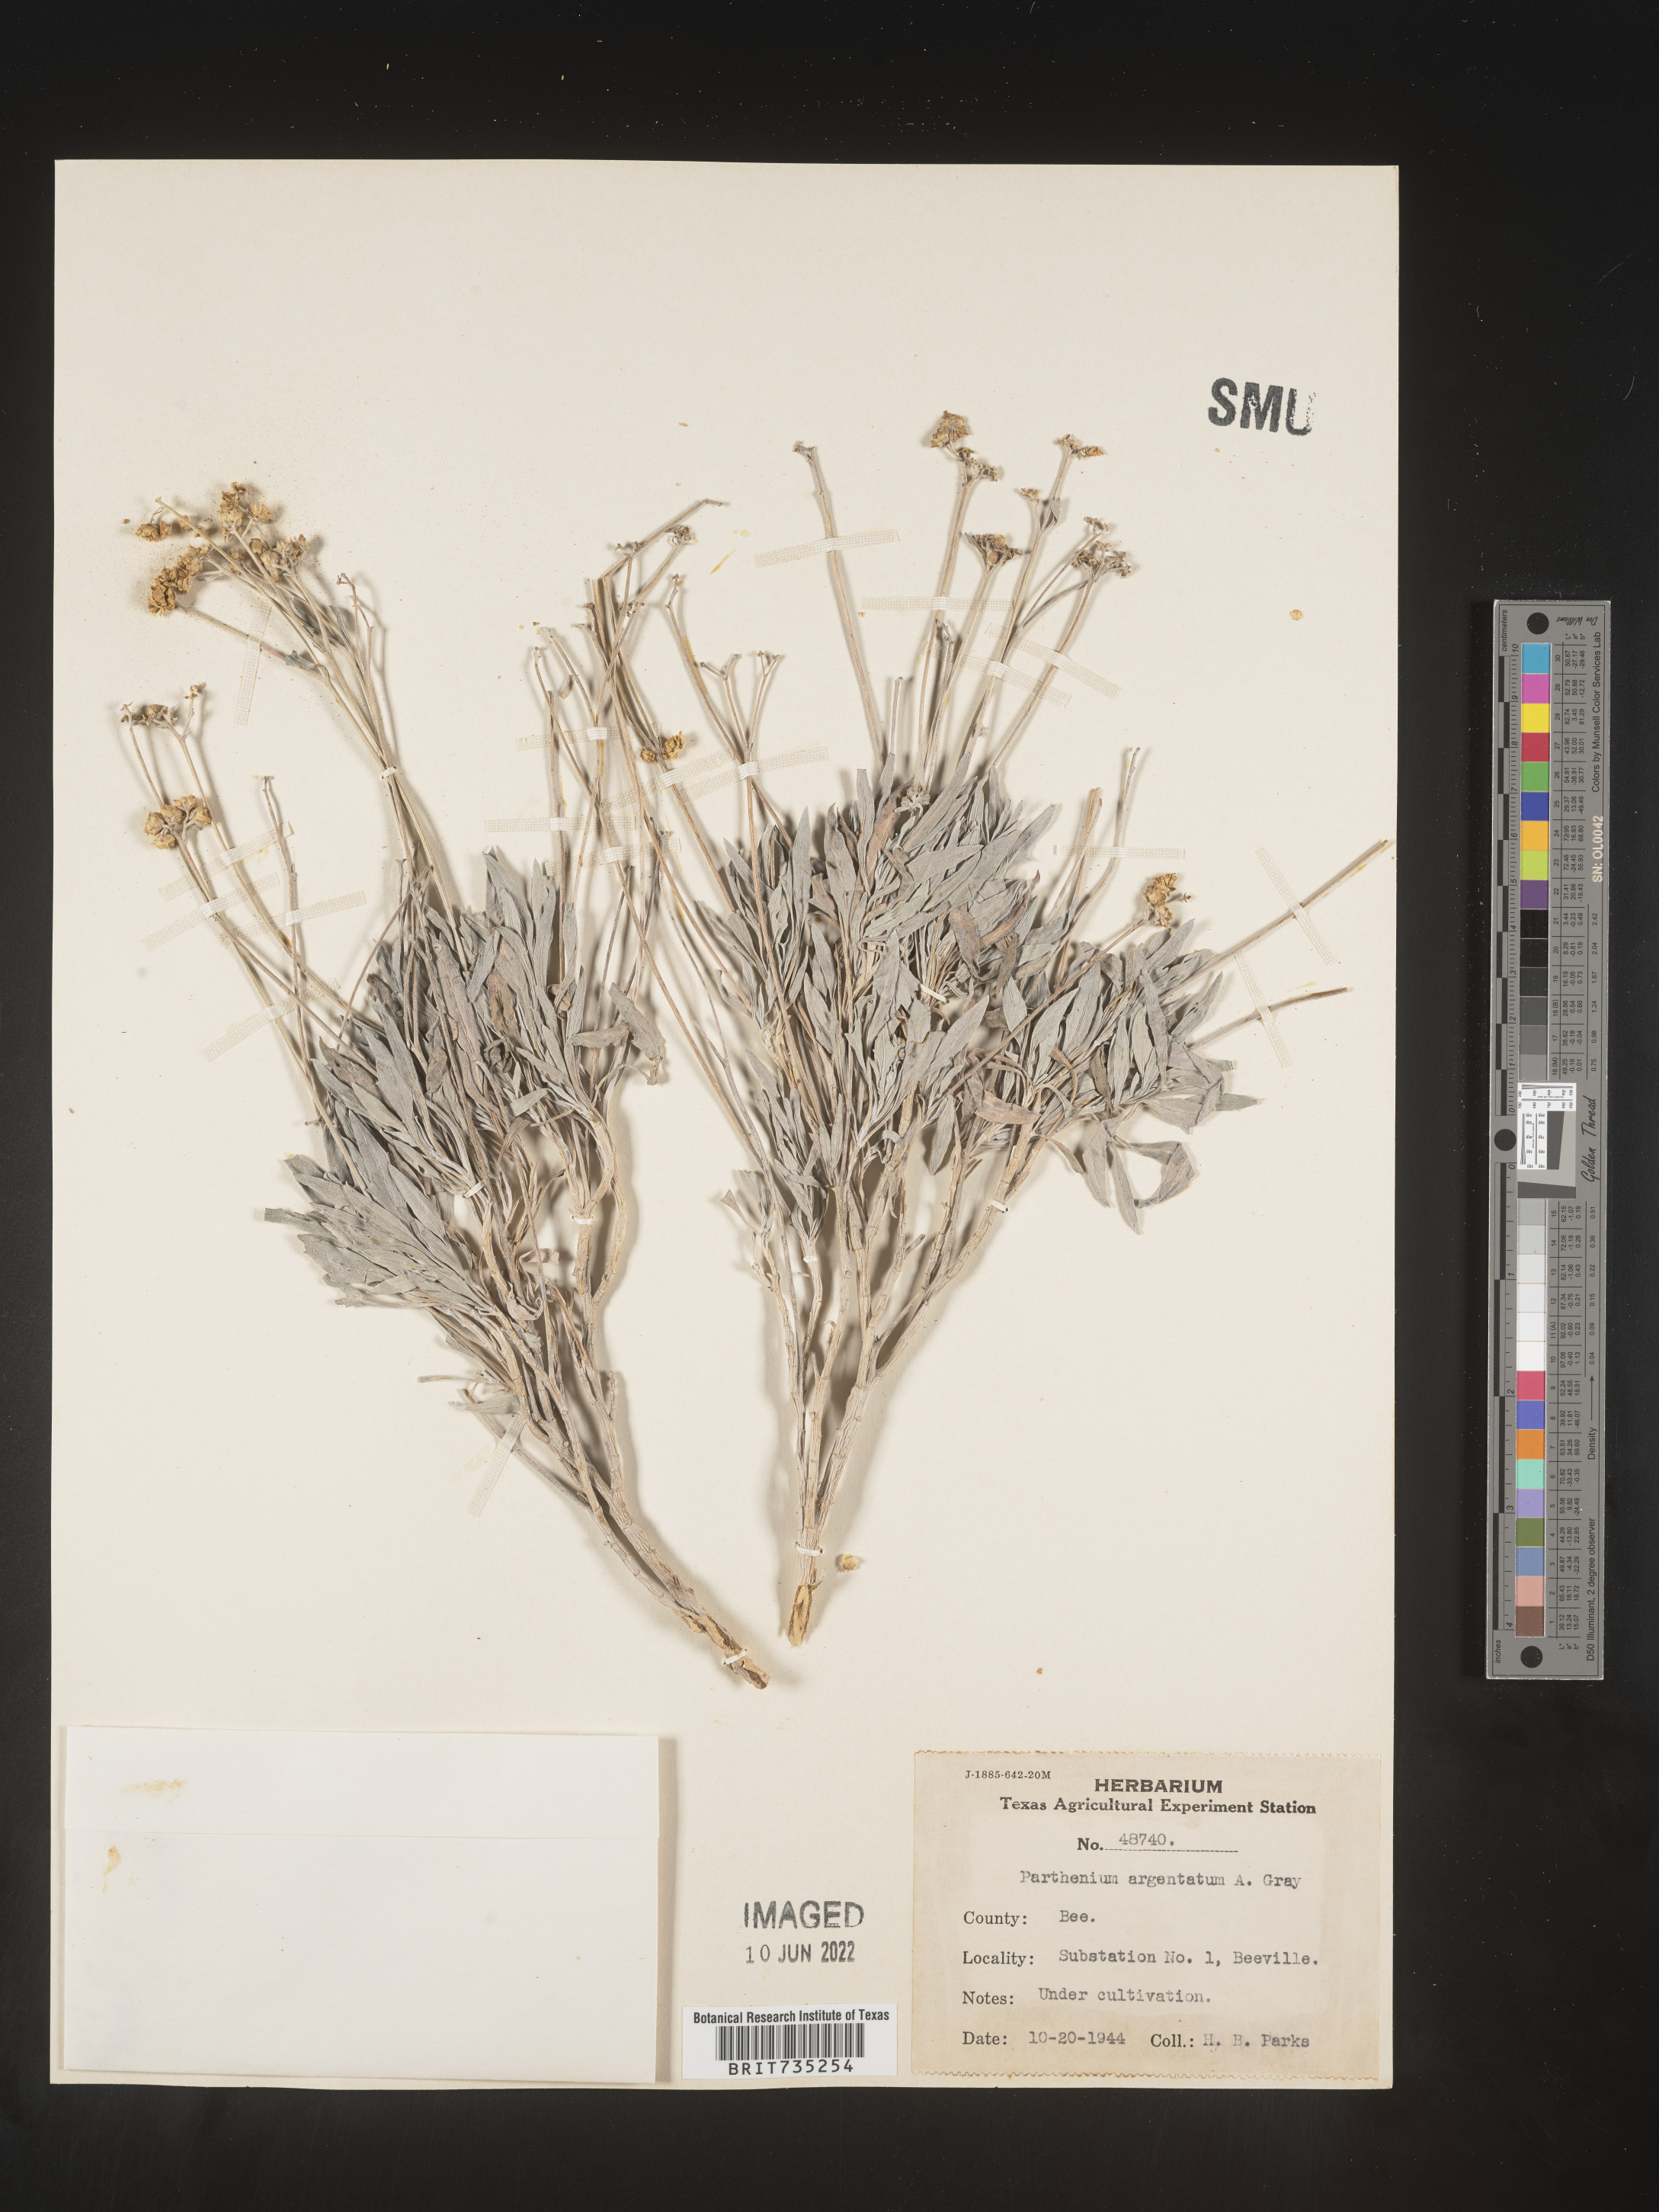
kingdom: Plantae
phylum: Tracheophyta
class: Magnoliopsida
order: Asterales
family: Asteraceae
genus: Parthenium
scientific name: Parthenium
